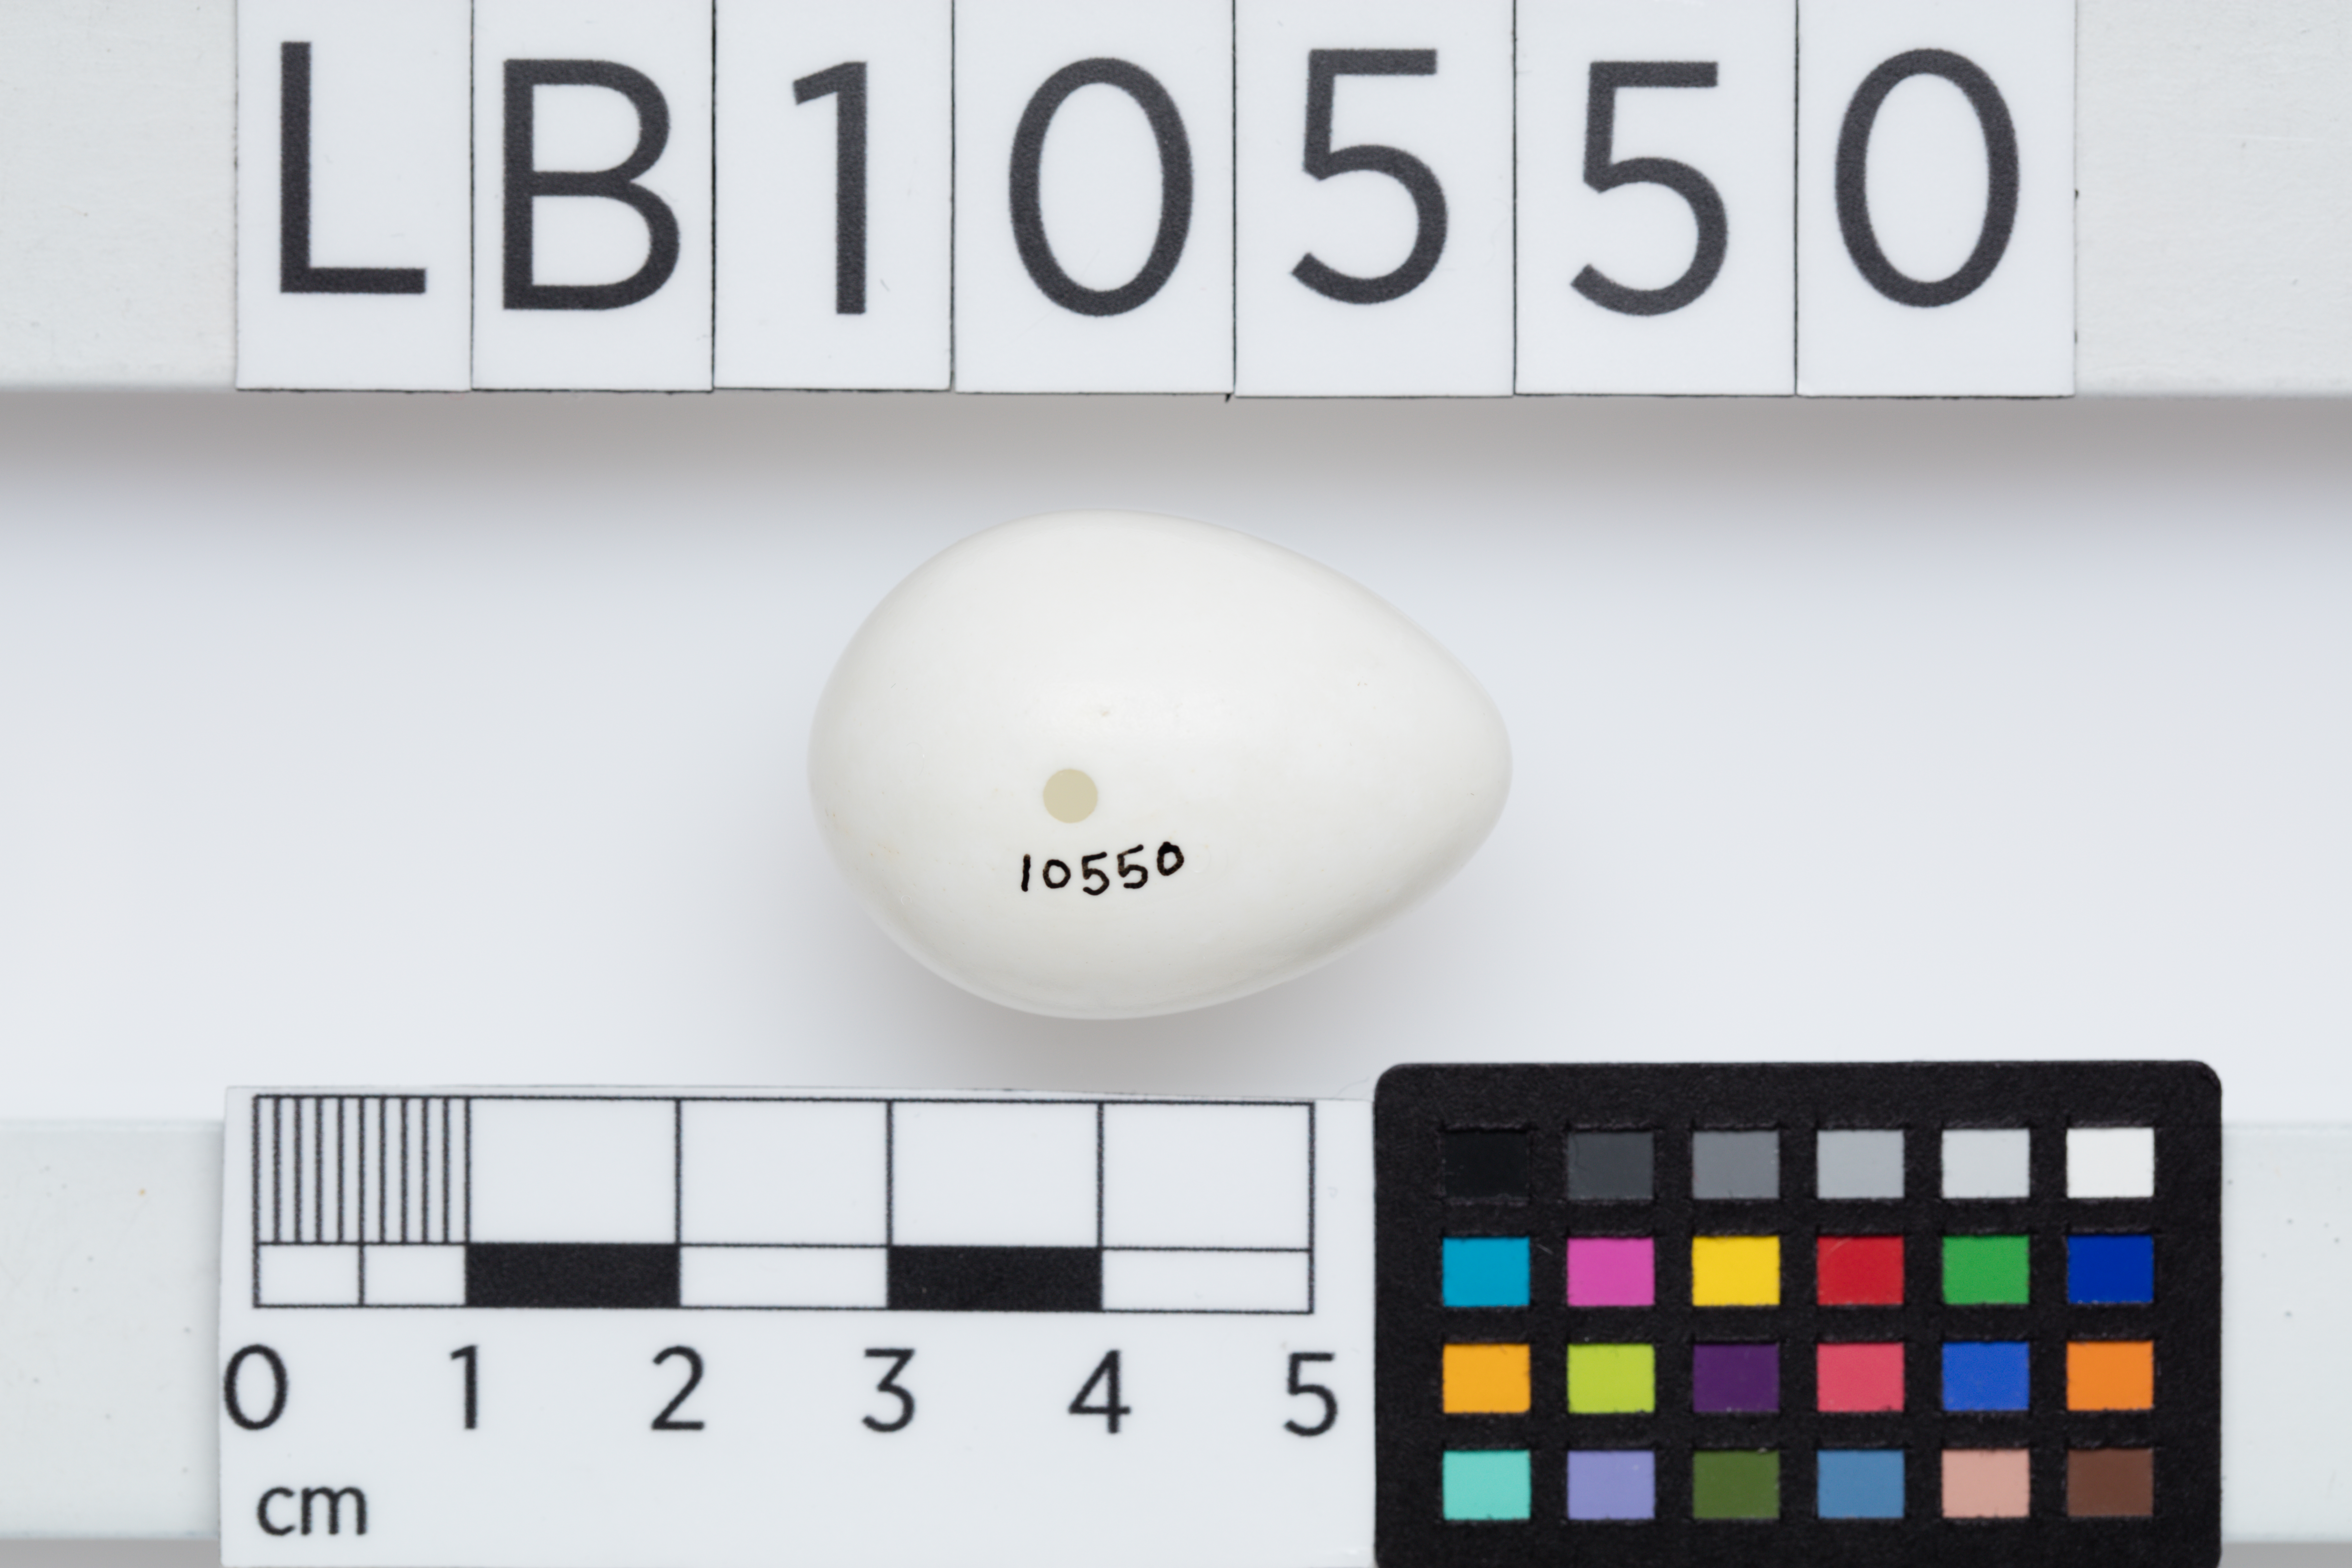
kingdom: Animalia
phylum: Chordata
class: Aves
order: Piciformes
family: Picidae
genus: Picus
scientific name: Picus viridis
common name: European green woodpecker
